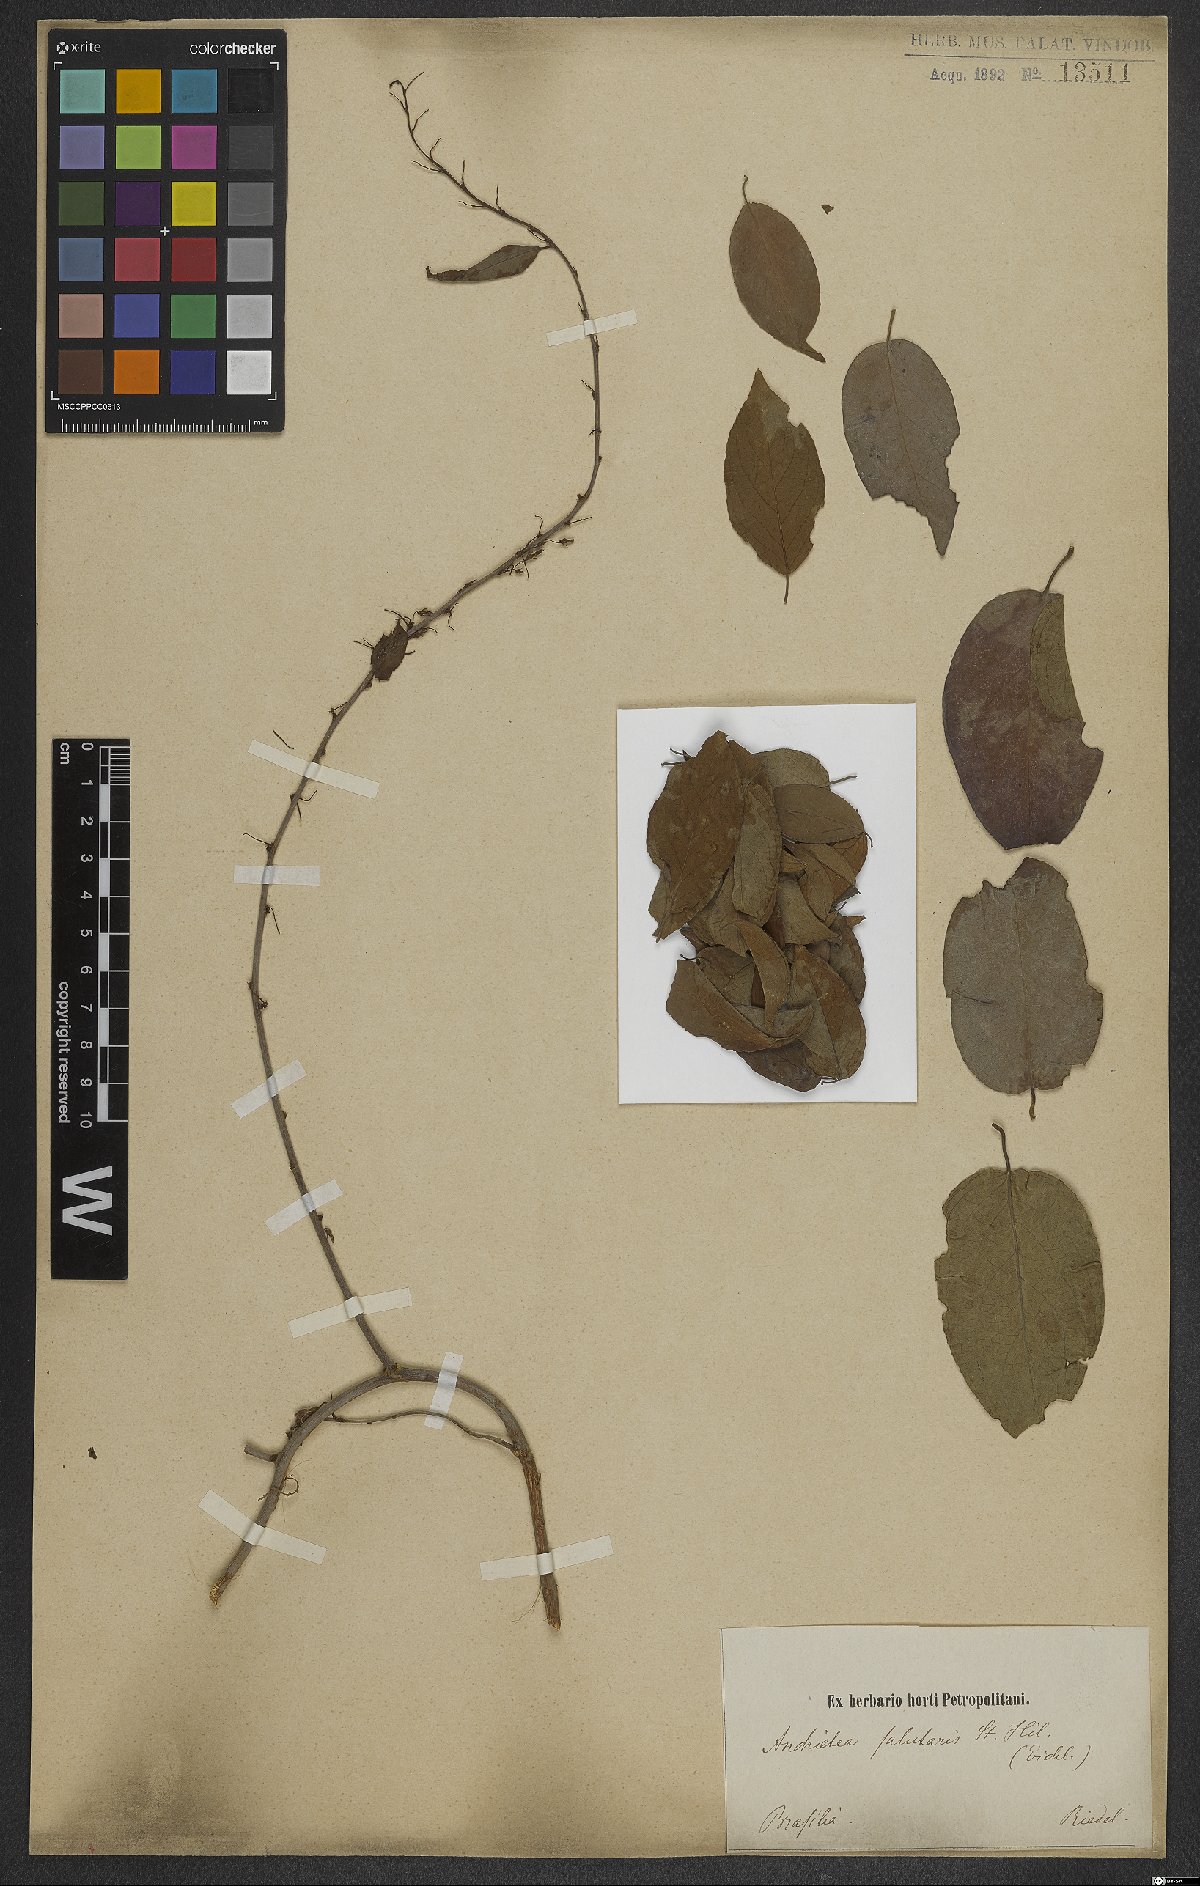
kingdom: Plantae
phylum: Tracheophyta
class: Magnoliopsida
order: Malpighiales
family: Violaceae
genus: Anchietea
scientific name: Anchietea pyrifolia
